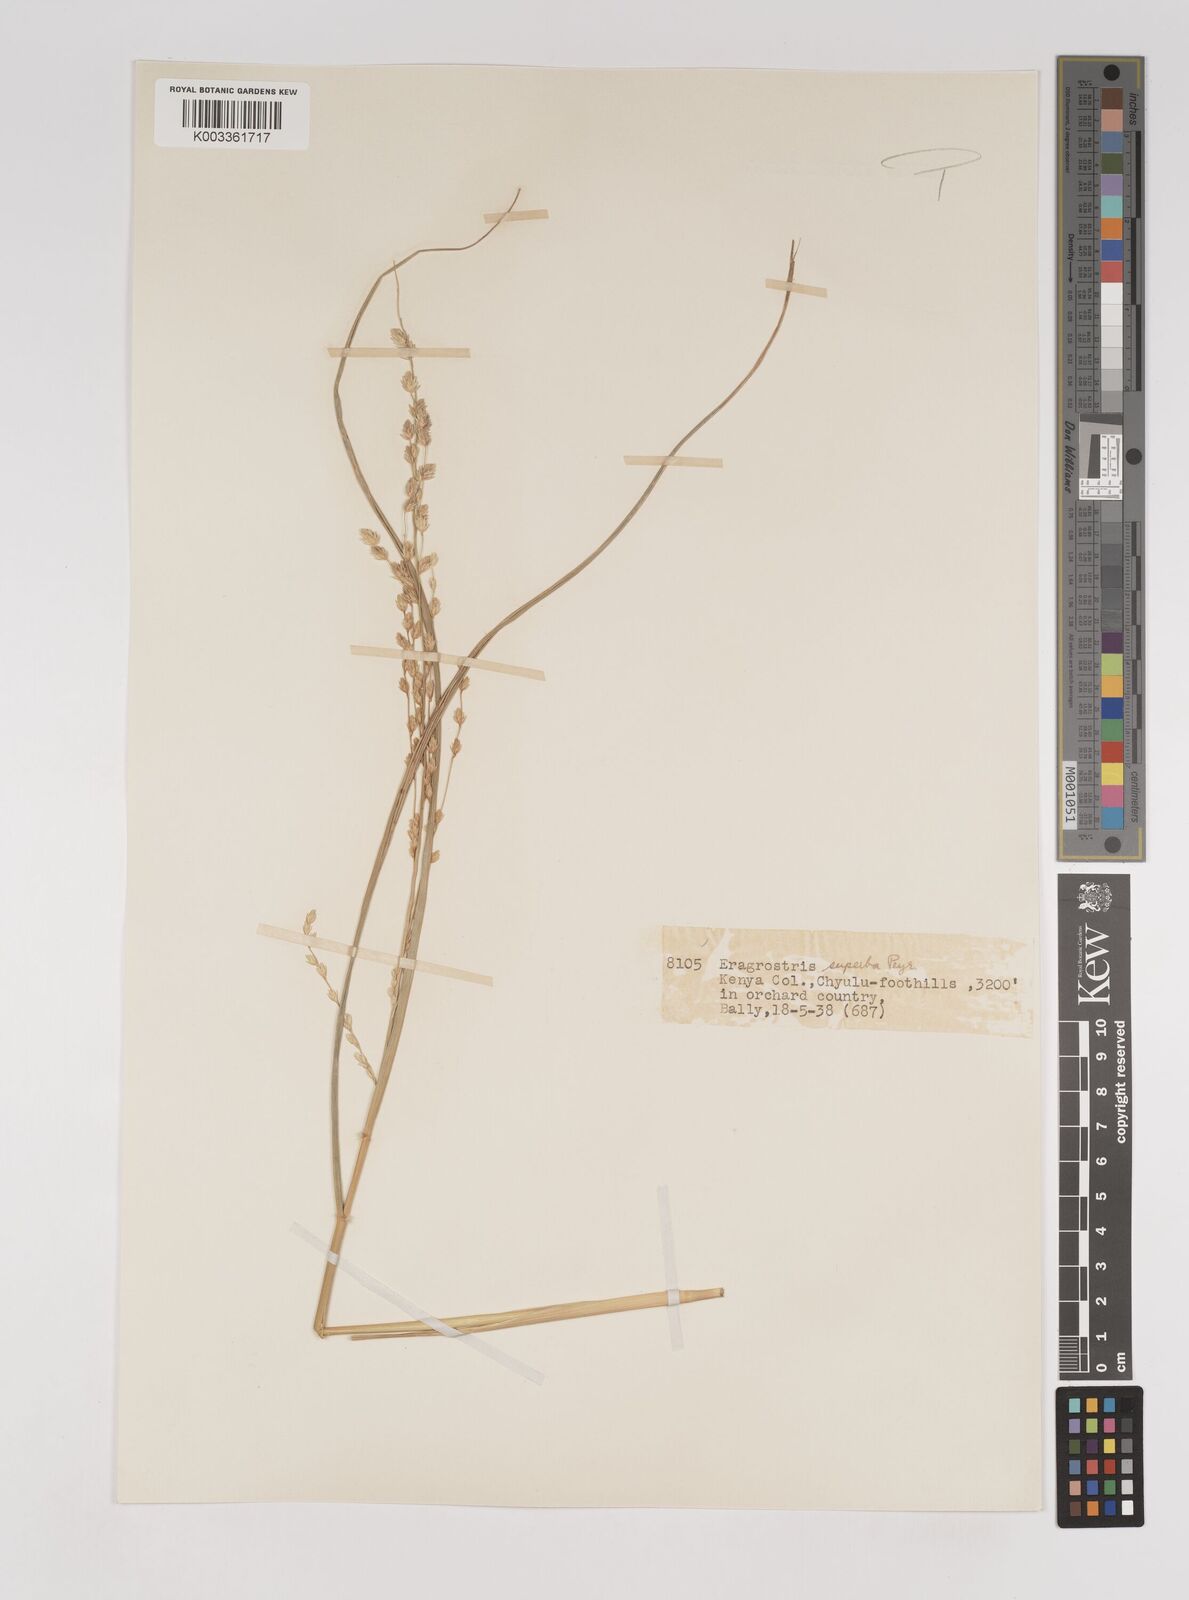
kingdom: Plantae
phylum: Tracheophyta
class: Liliopsida
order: Poales
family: Poaceae
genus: Eragrostis
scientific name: Eragrostis superba
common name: Wilman lovegrass
